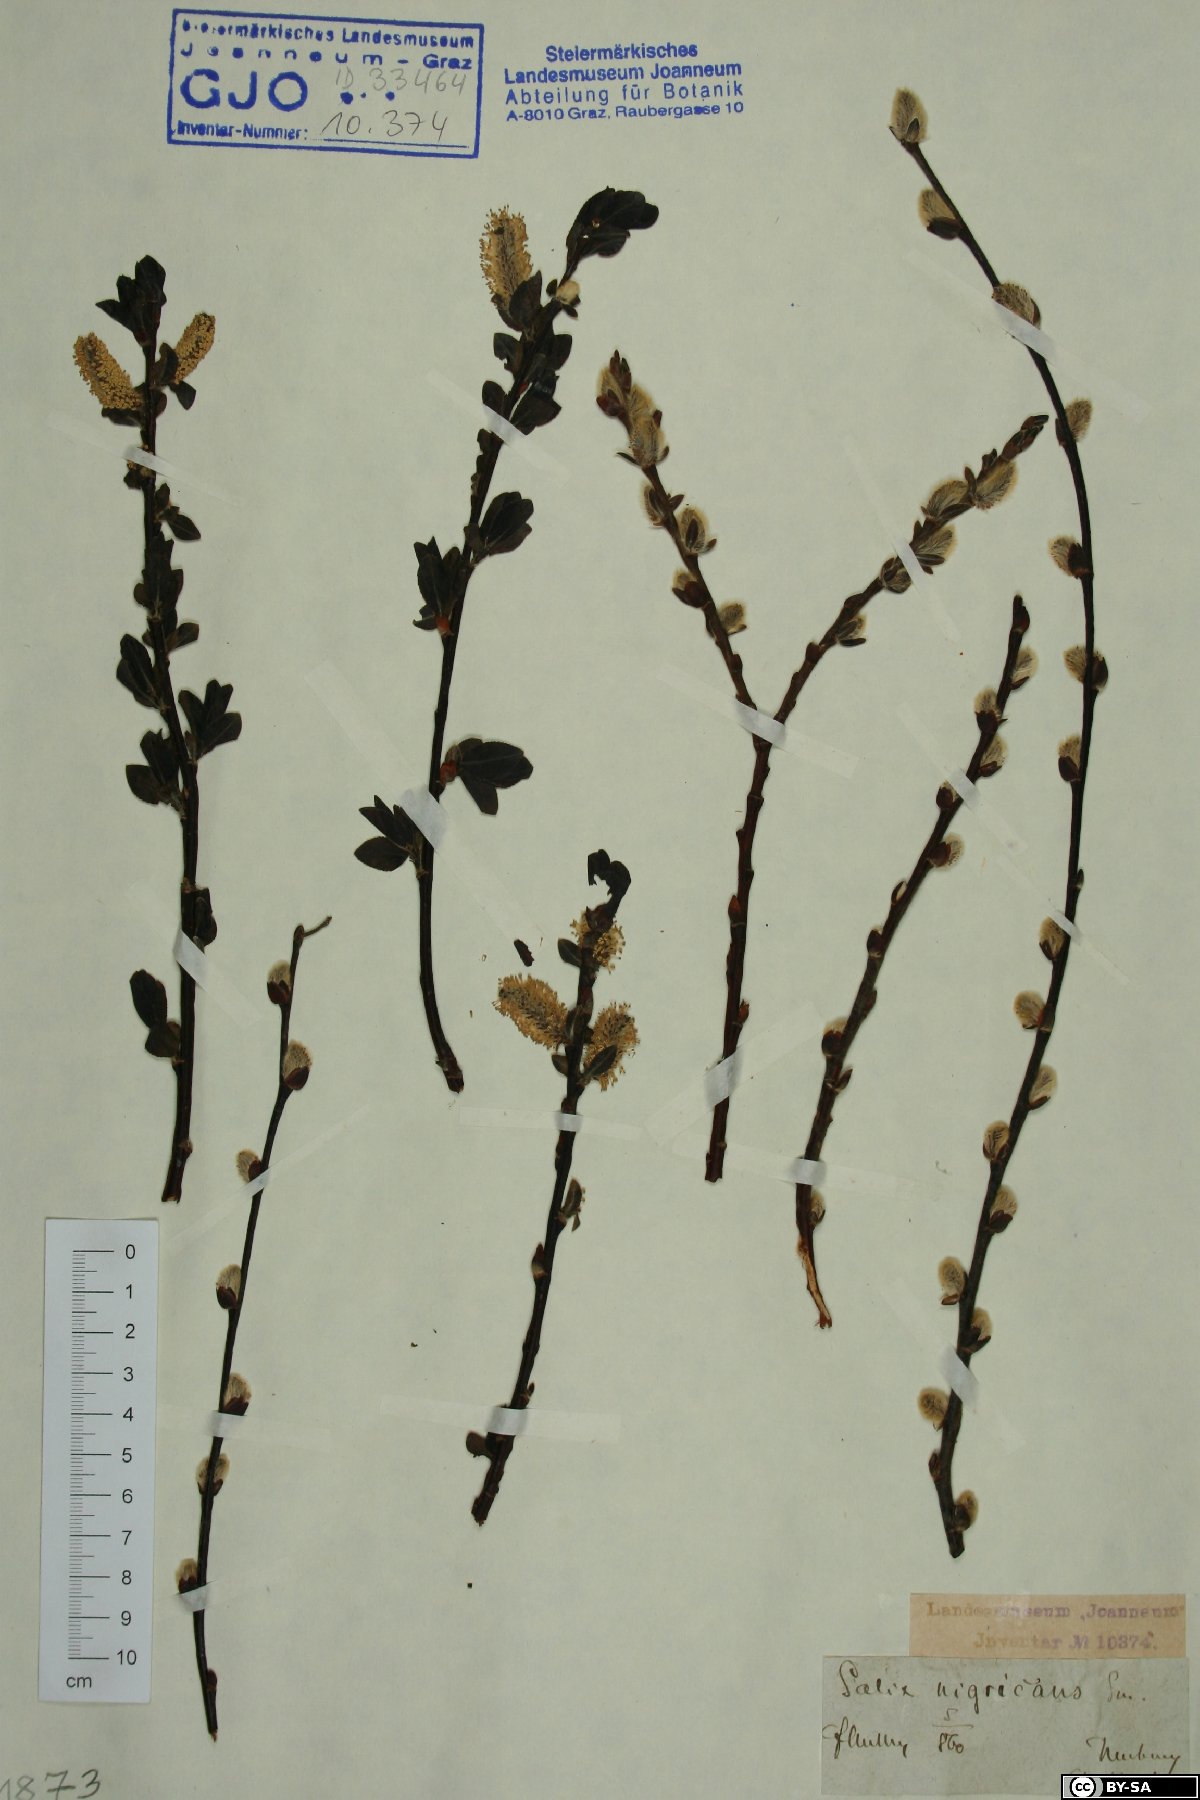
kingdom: Plantae
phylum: Tracheophyta
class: Magnoliopsida
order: Malpighiales
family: Salicaceae
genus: Salix
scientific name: Salix myrsinifolia
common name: Dark-leaved willow
